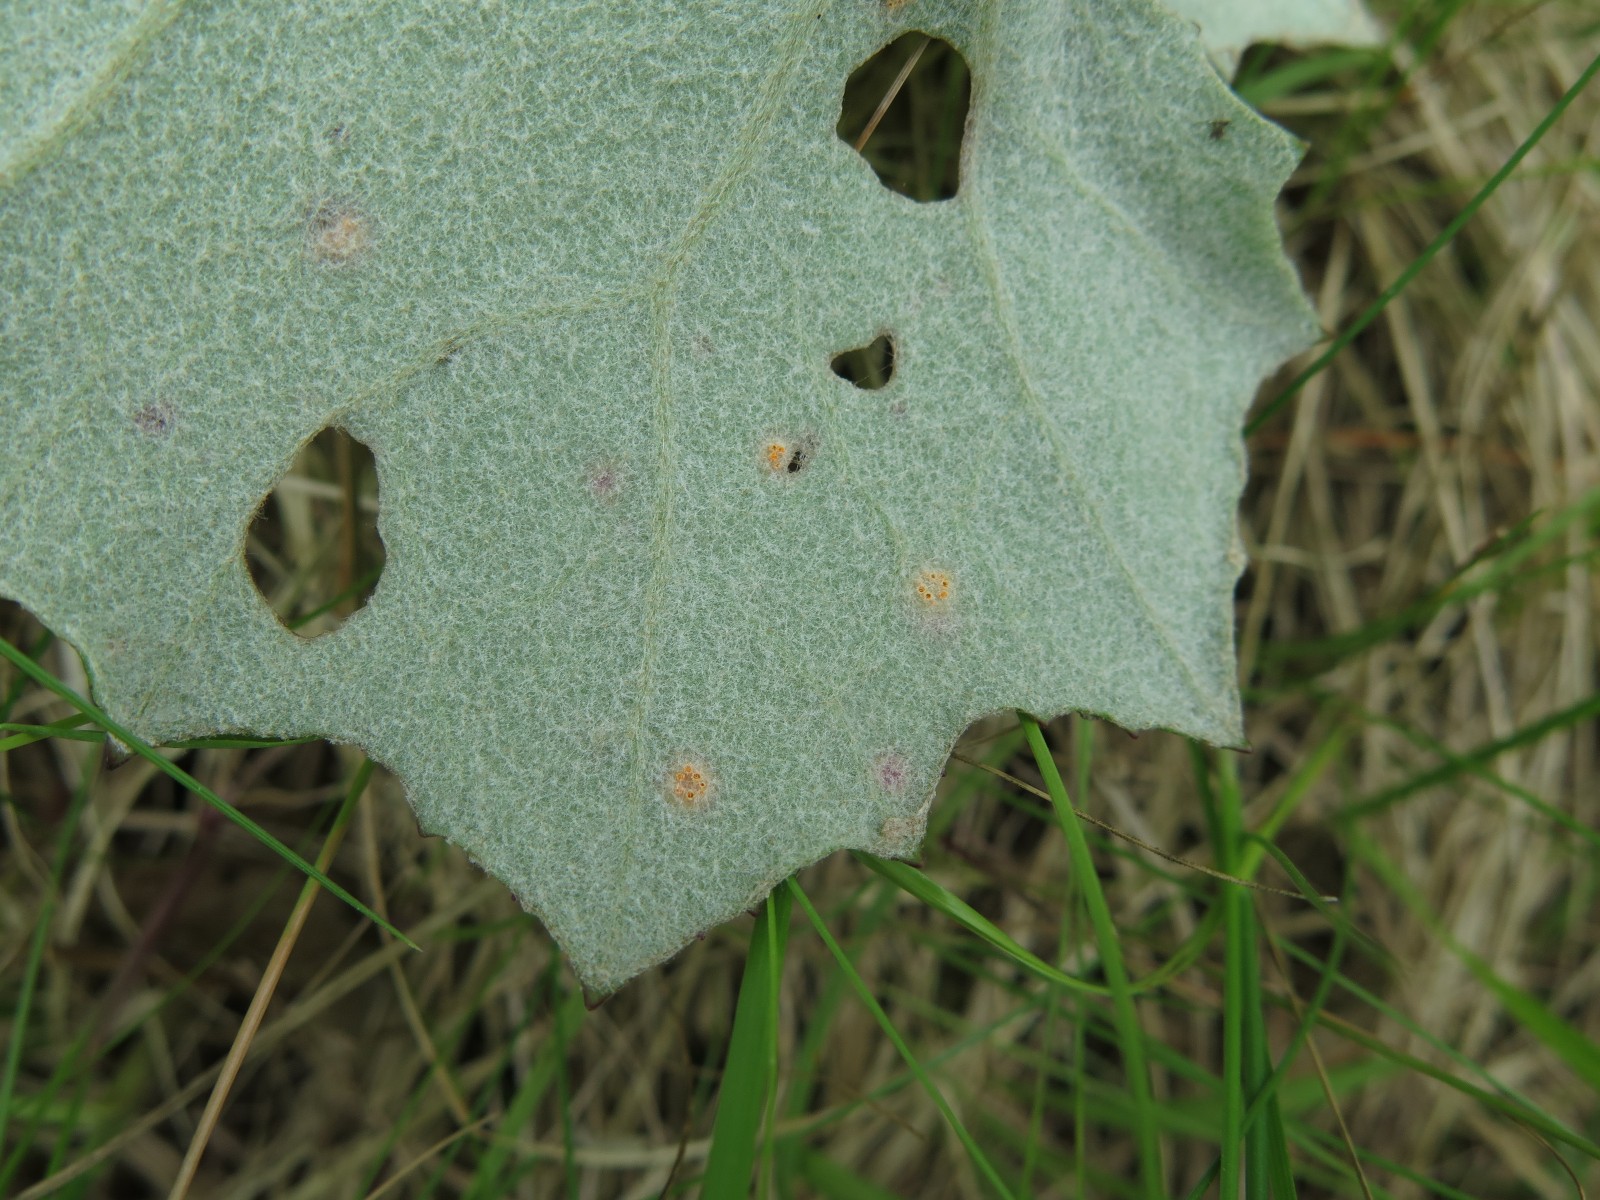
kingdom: Fungi
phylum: Basidiomycota
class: Pucciniomycetes
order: Pucciniales
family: Pucciniaceae
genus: Puccinia
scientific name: Puccinia poarum
